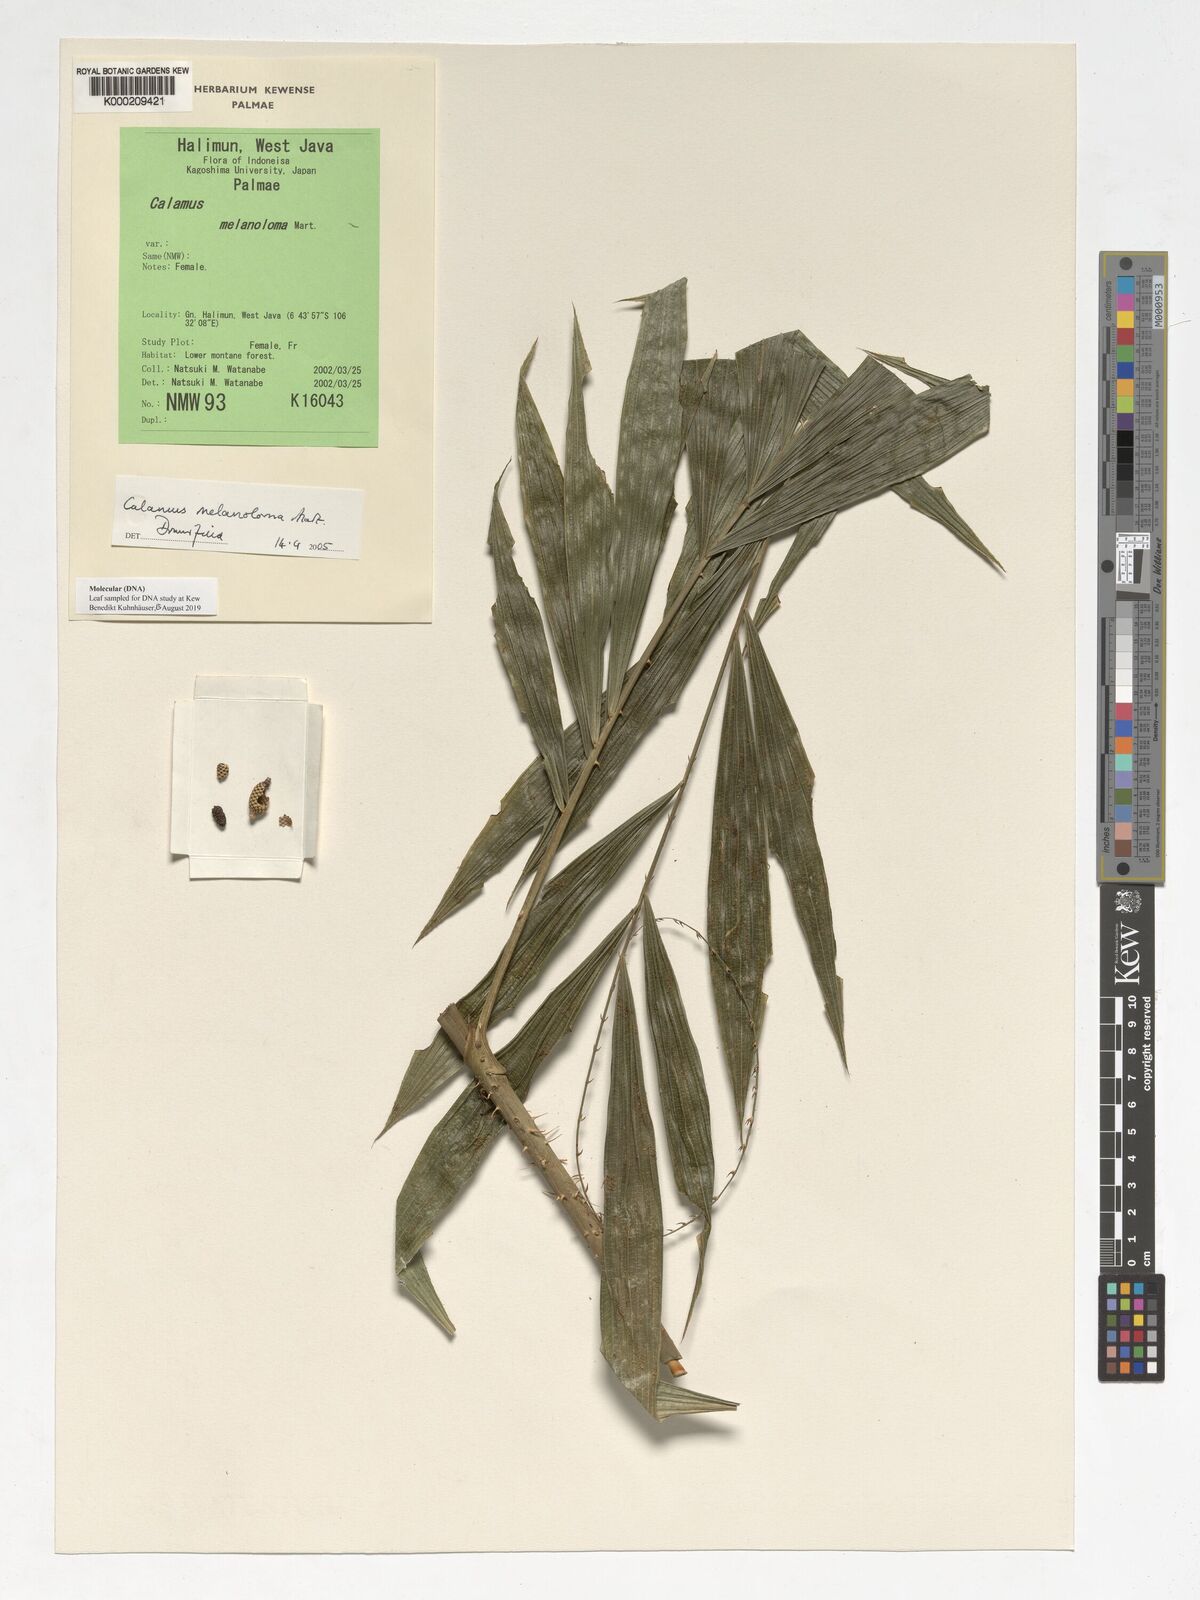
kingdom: Plantae
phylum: Tracheophyta
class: Liliopsida
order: Arecales
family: Arecaceae
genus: Calamus
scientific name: Calamus melanoloma
